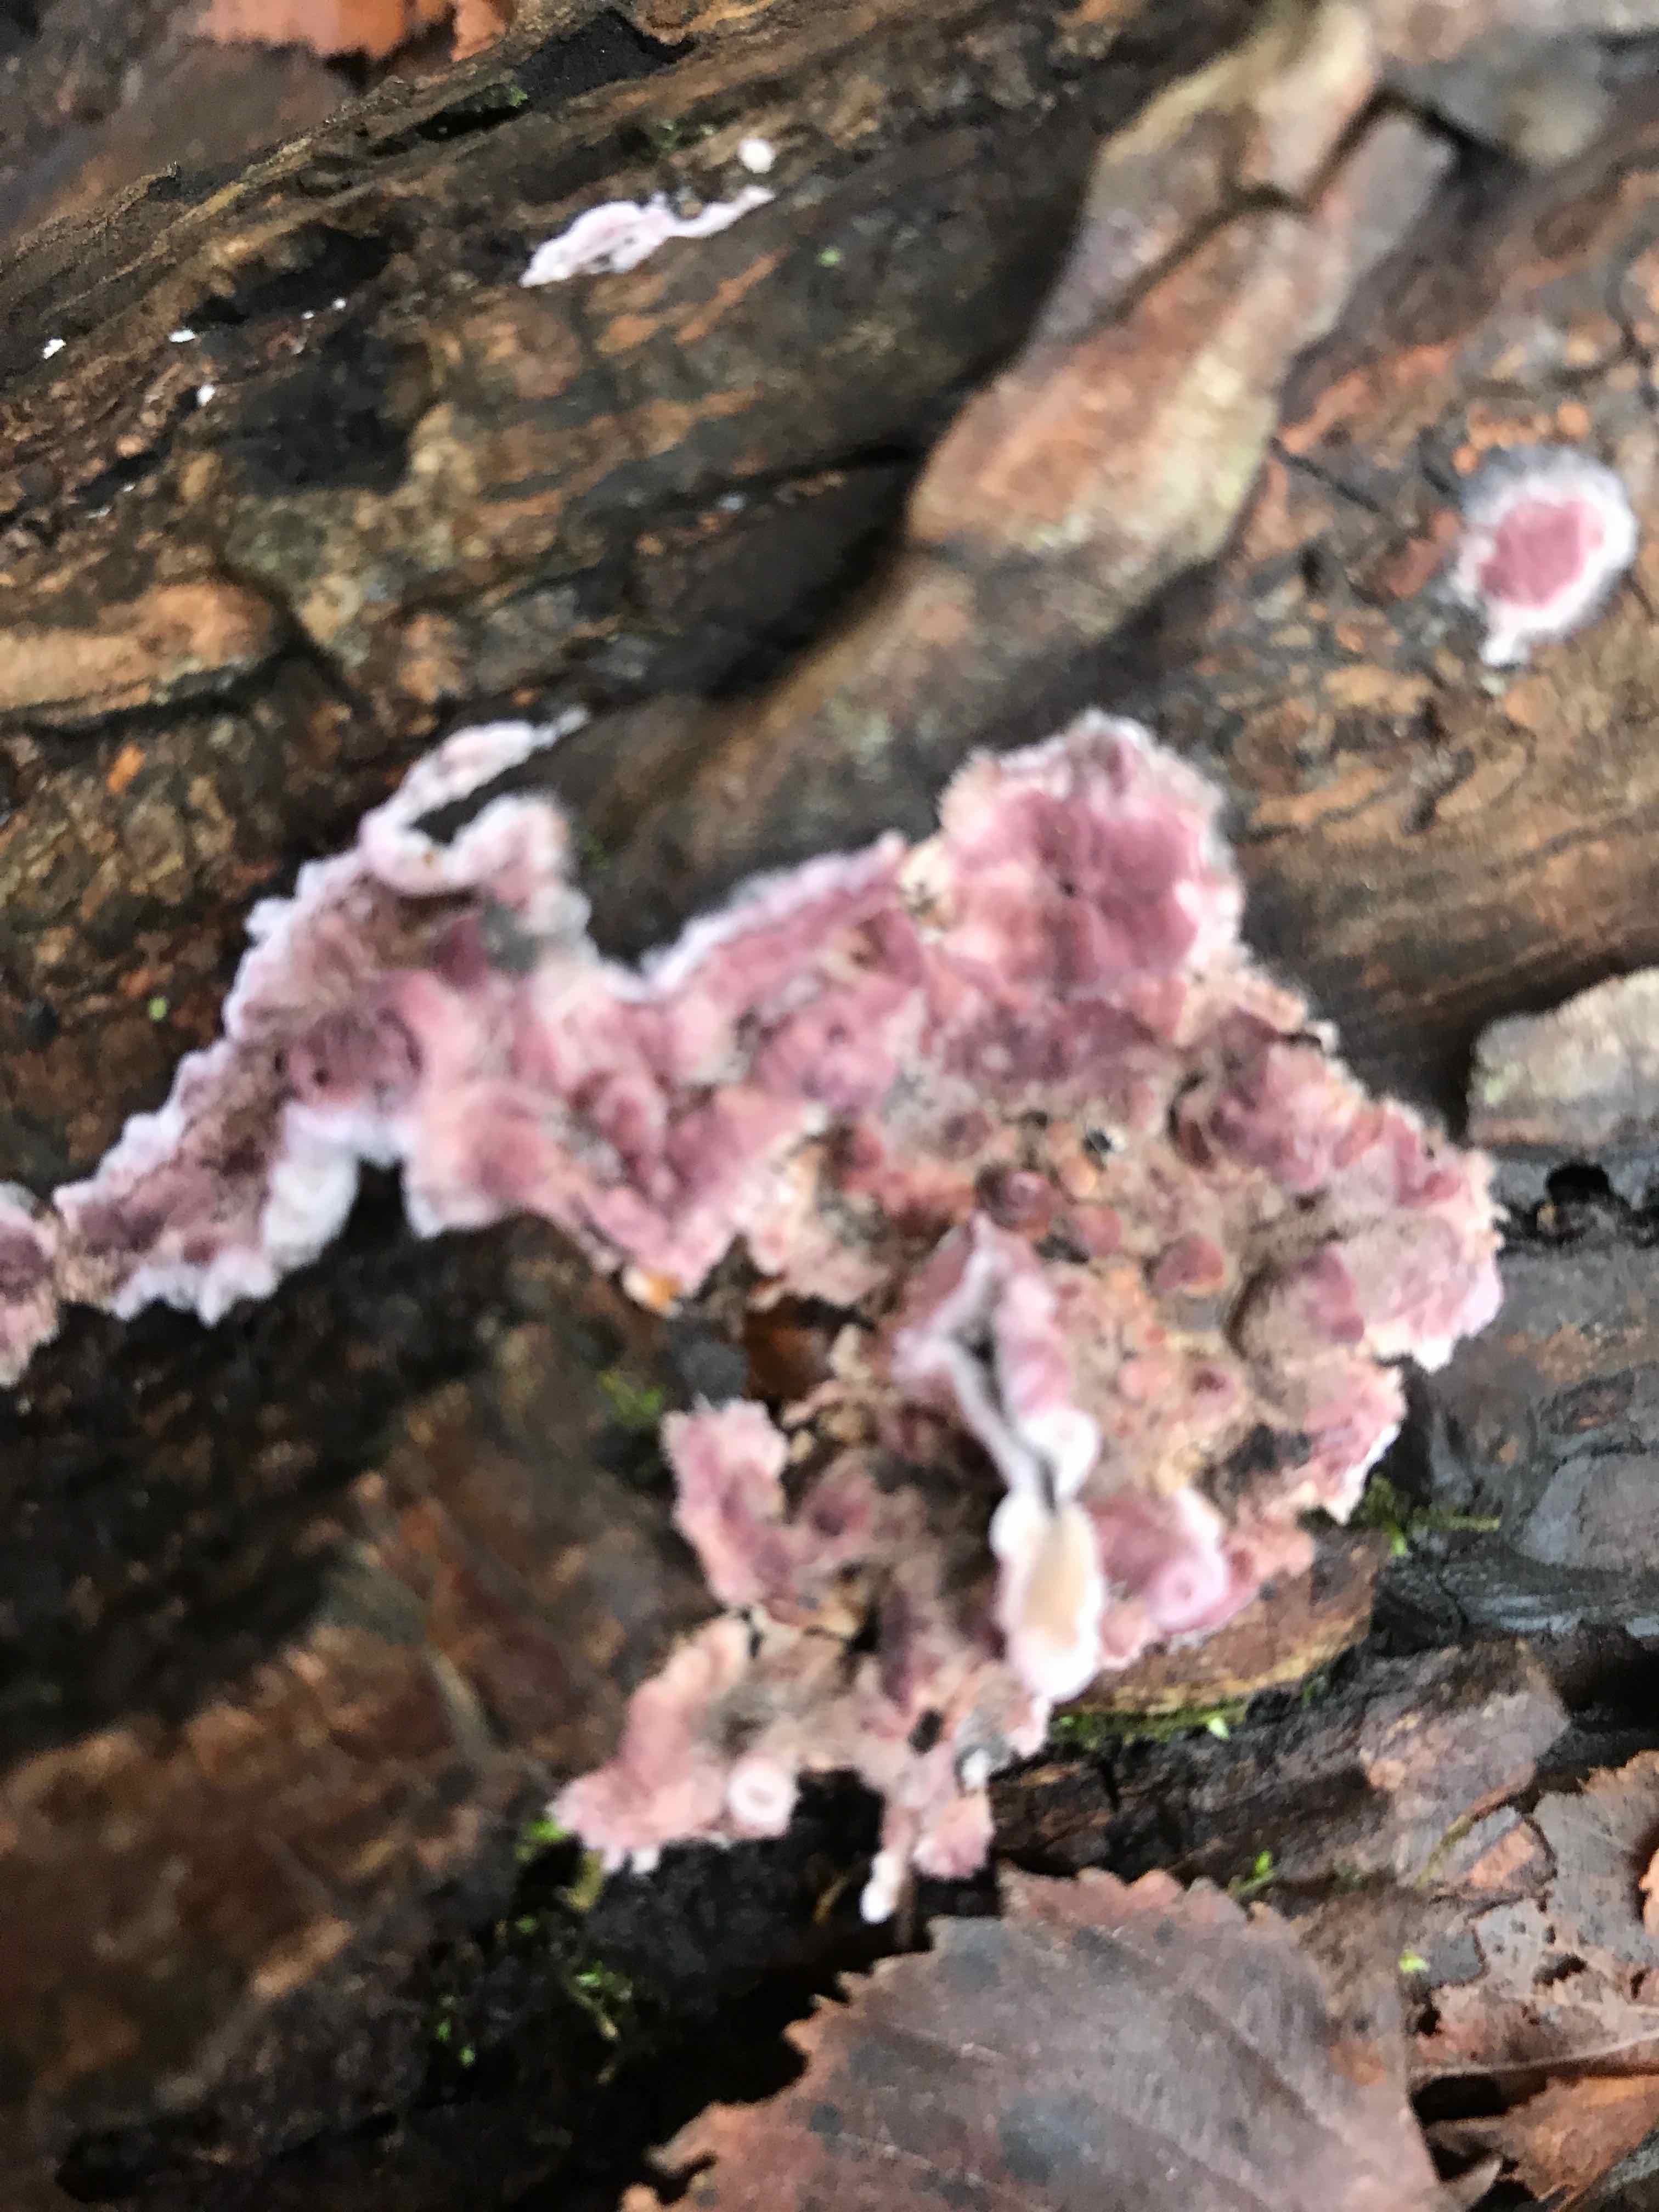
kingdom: Fungi
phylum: Basidiomycota
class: Agaricomycetes
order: Agaricales
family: Cyphellaceae
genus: Chondrostereum
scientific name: Chondrostereum purpureum
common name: purpurlædersvamp
